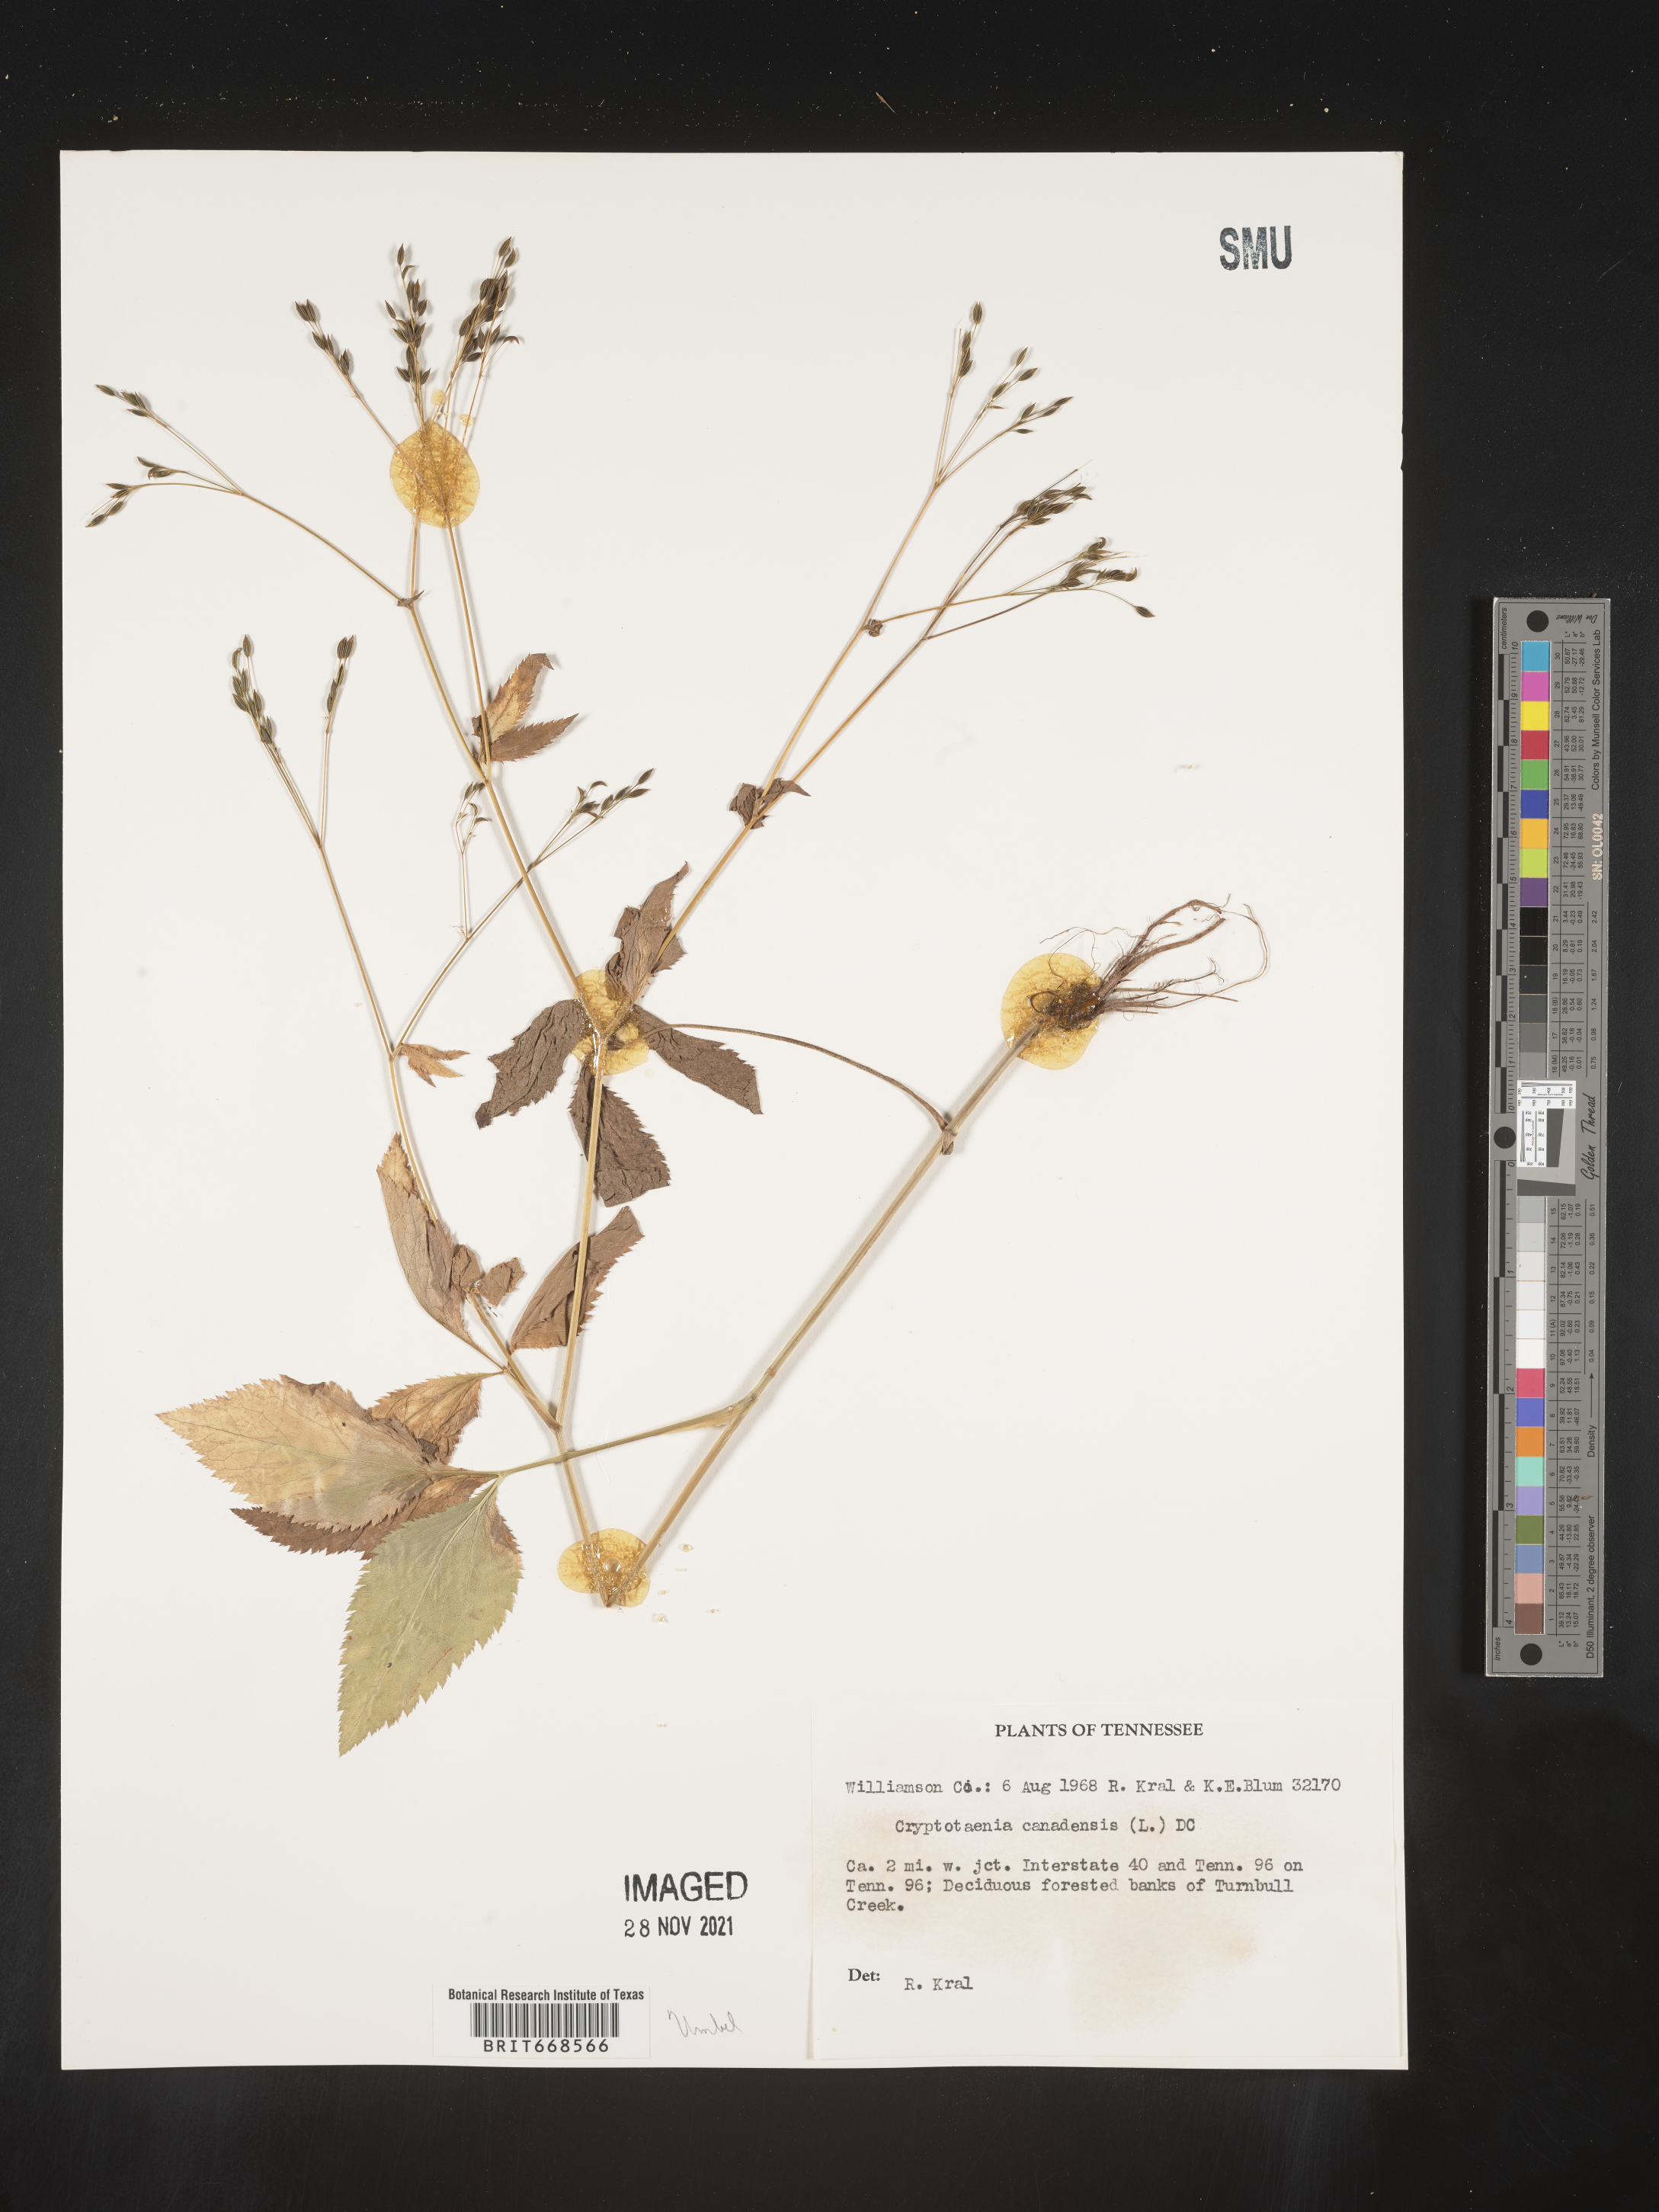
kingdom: Plantae
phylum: Tracheophyta
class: Magnoliopsida
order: Apiales
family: Apiaceae
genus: Cryptotaenia
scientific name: Cryptotaenia canadensis
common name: Honewort
